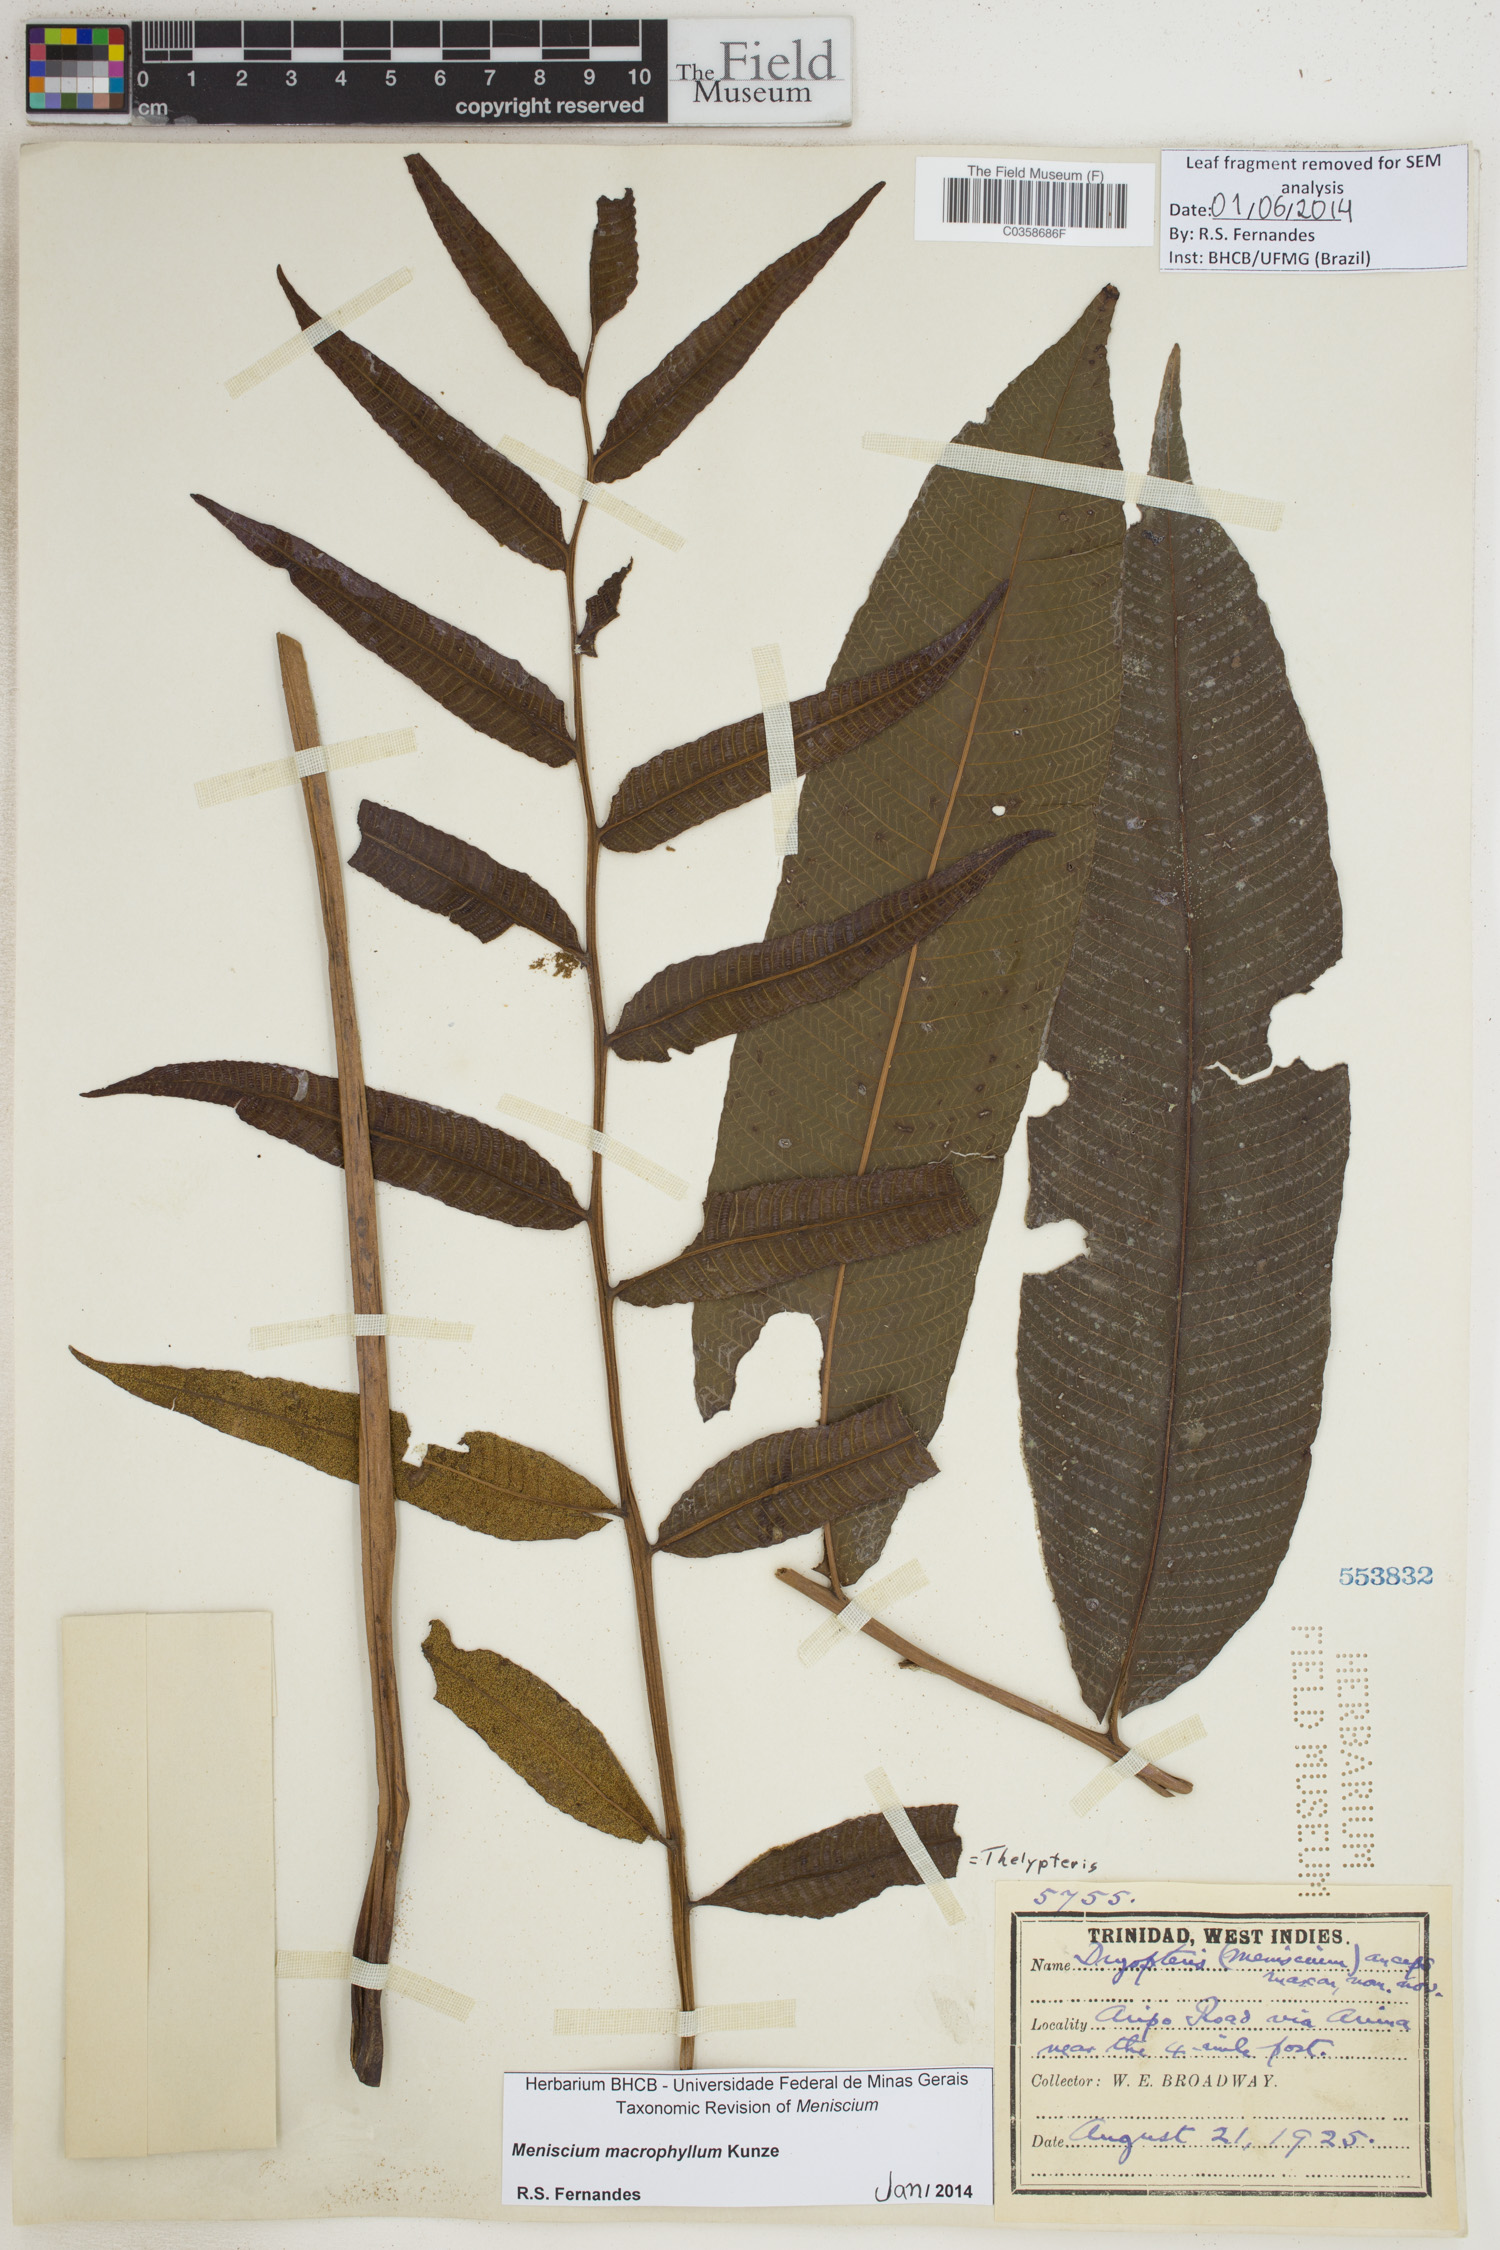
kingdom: Plantae
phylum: Tracheophyta
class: Polypodiopsida
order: Polypodiales
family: Thelypteridaceae
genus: Meniscium
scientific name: Meniscium macrophyllum
